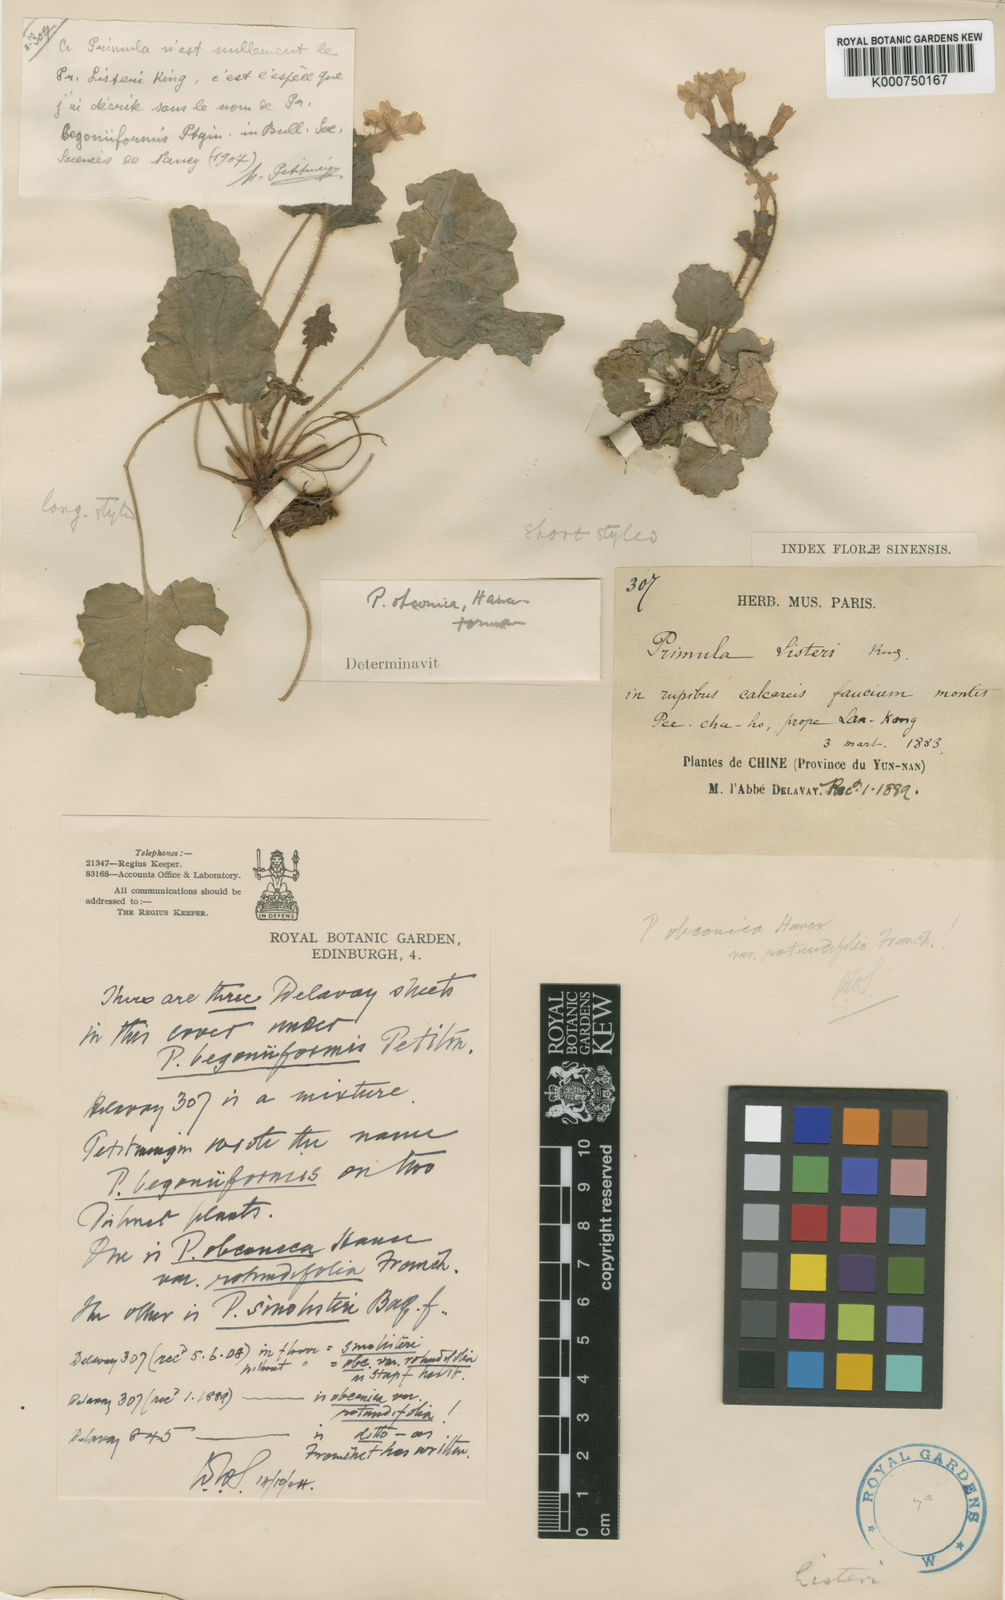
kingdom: Plantae
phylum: Tracheophyta
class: Magnoliopsida
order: Ericales
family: Primulaceae
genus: Primula
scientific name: Primula obconica
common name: German primrose
